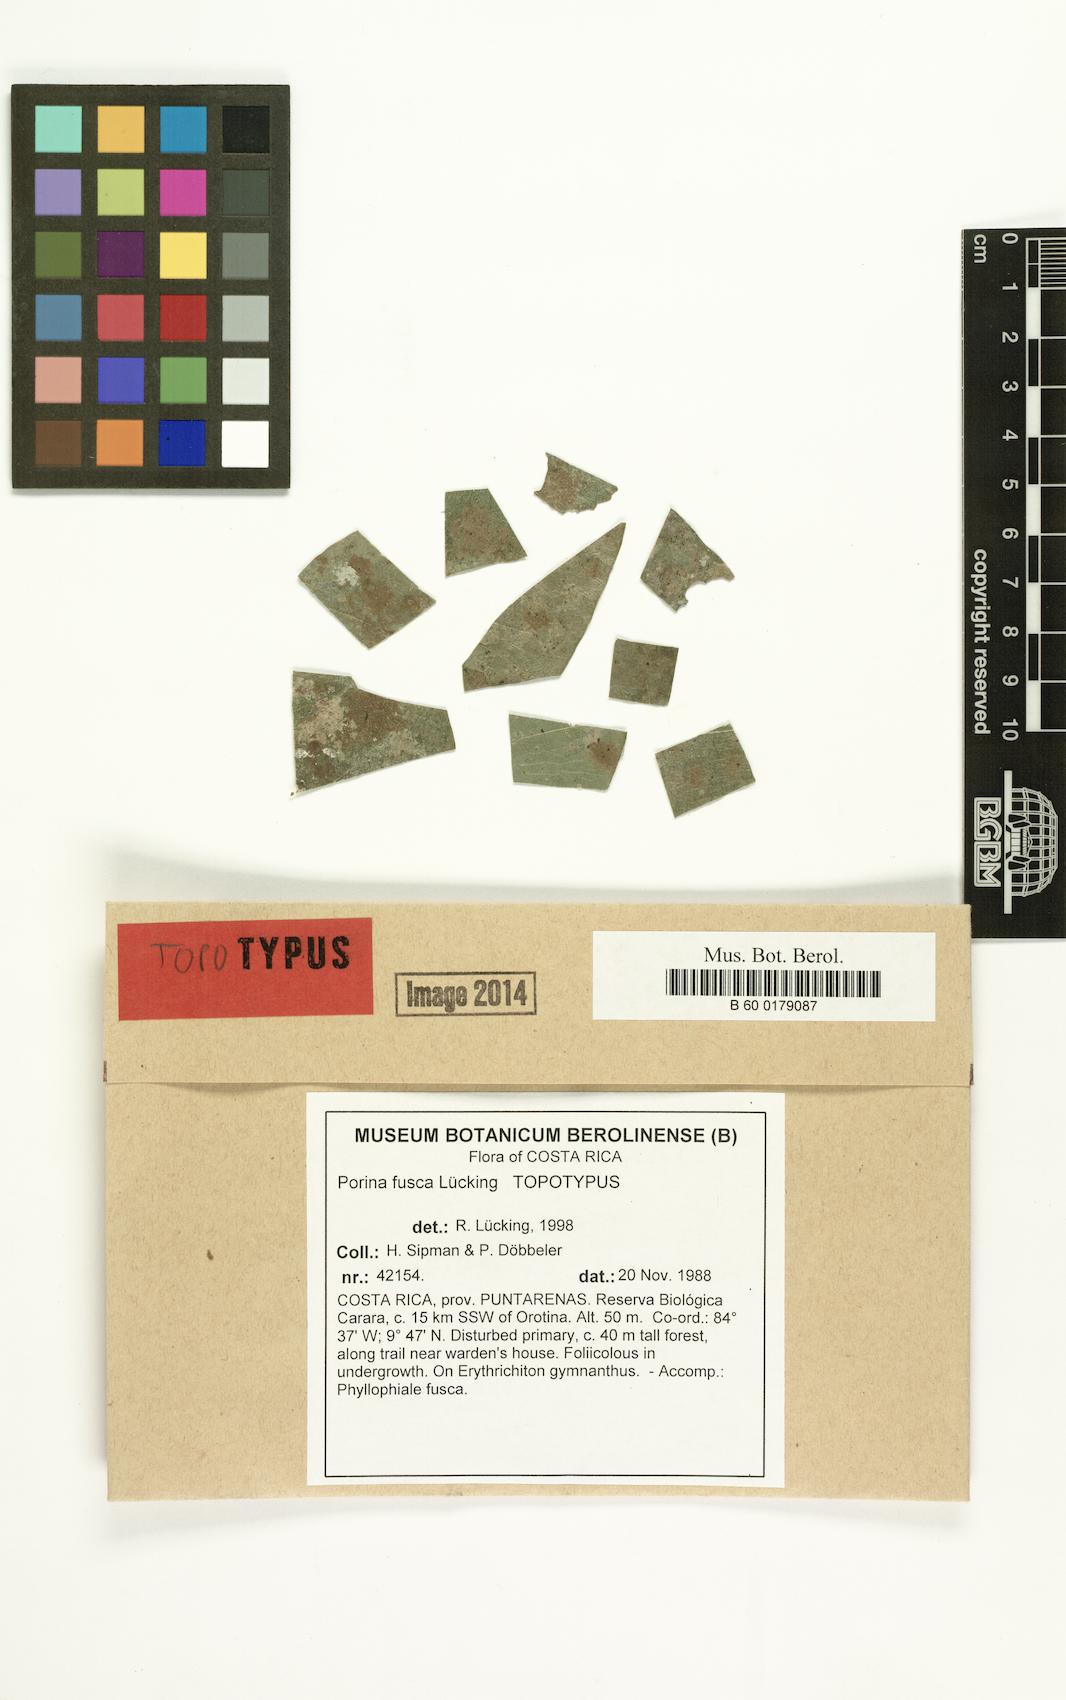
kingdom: Fungi
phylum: Ascomycota
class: Lecanoromycetes
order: Pertusariales
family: Pertusariaceae
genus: Porina
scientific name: Porina fusca
